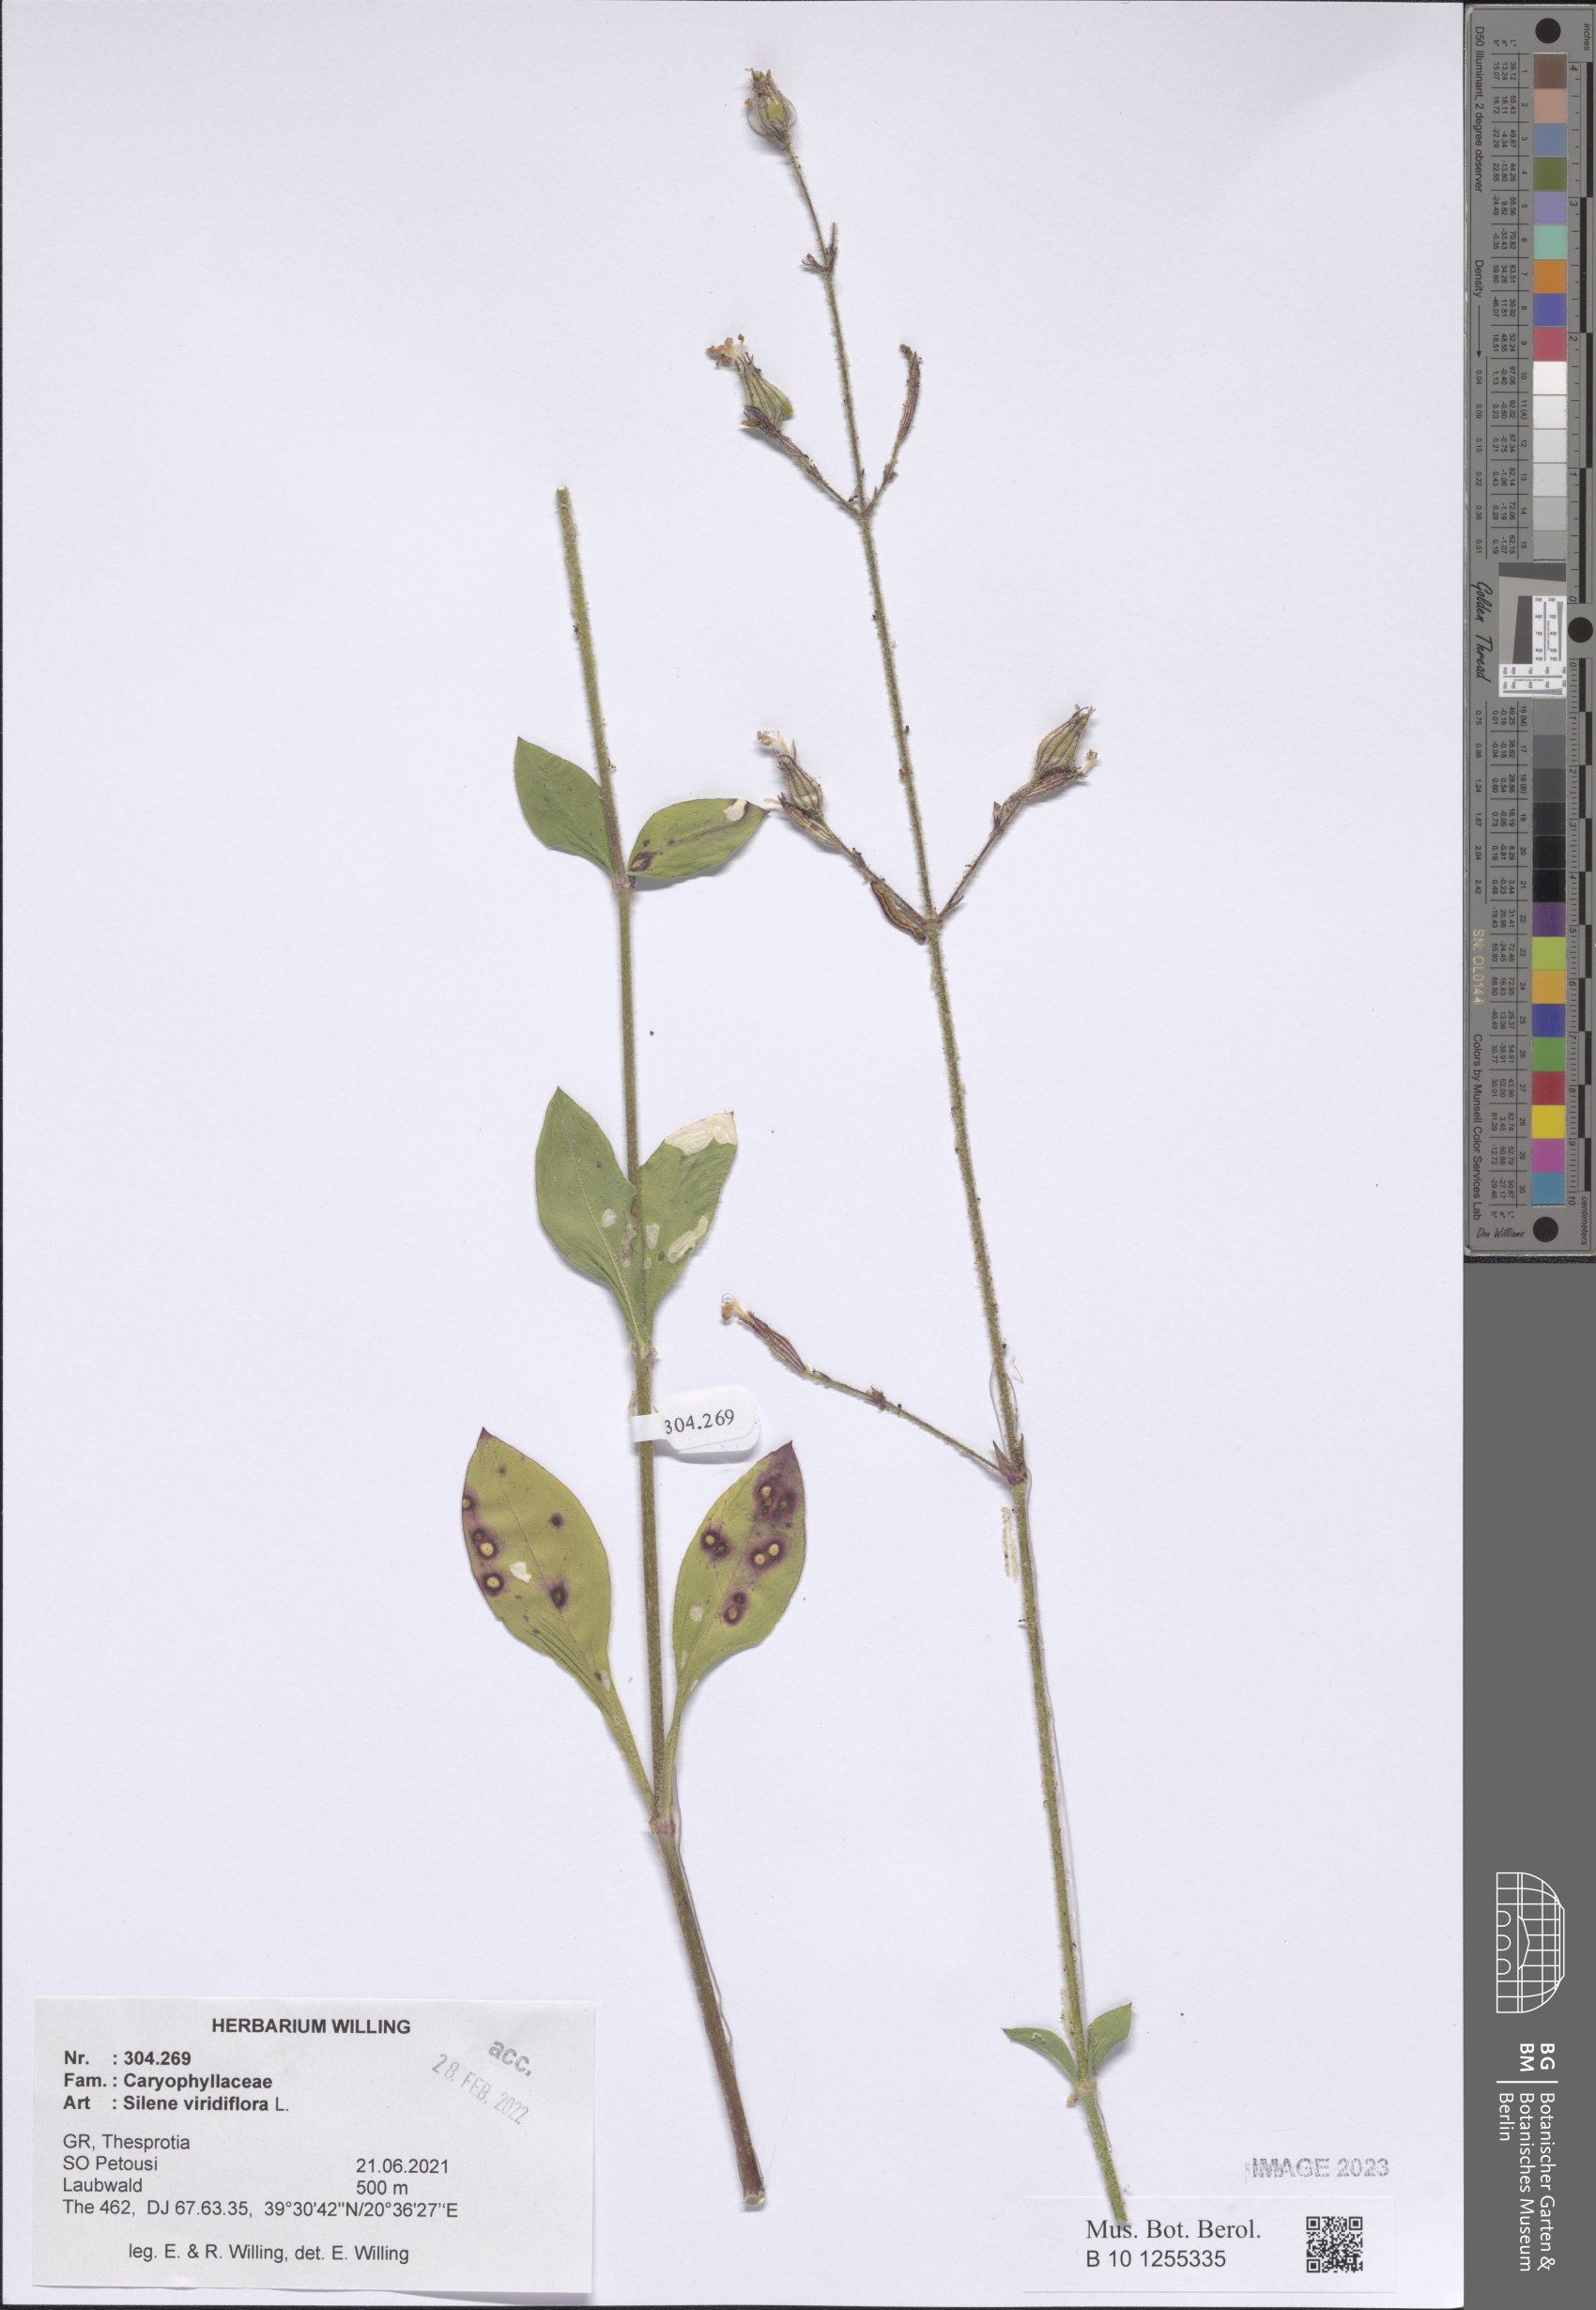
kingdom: Plantae
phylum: Tracheophyta
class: Magnoliopsida
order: Caryophyllales
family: Caryophyllaceae
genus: Silene
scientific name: Silene viridiflora
